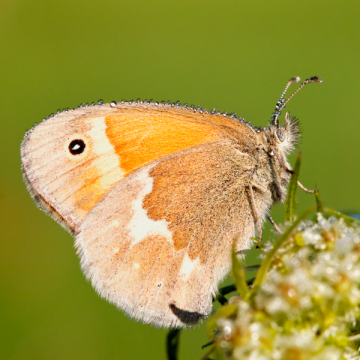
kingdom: Animalia
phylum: Arthropoda
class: Insecta
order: Lepidoptera
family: Nymphalidae
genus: Coenonympha
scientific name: Coenonympha tullia
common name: Large Heath
